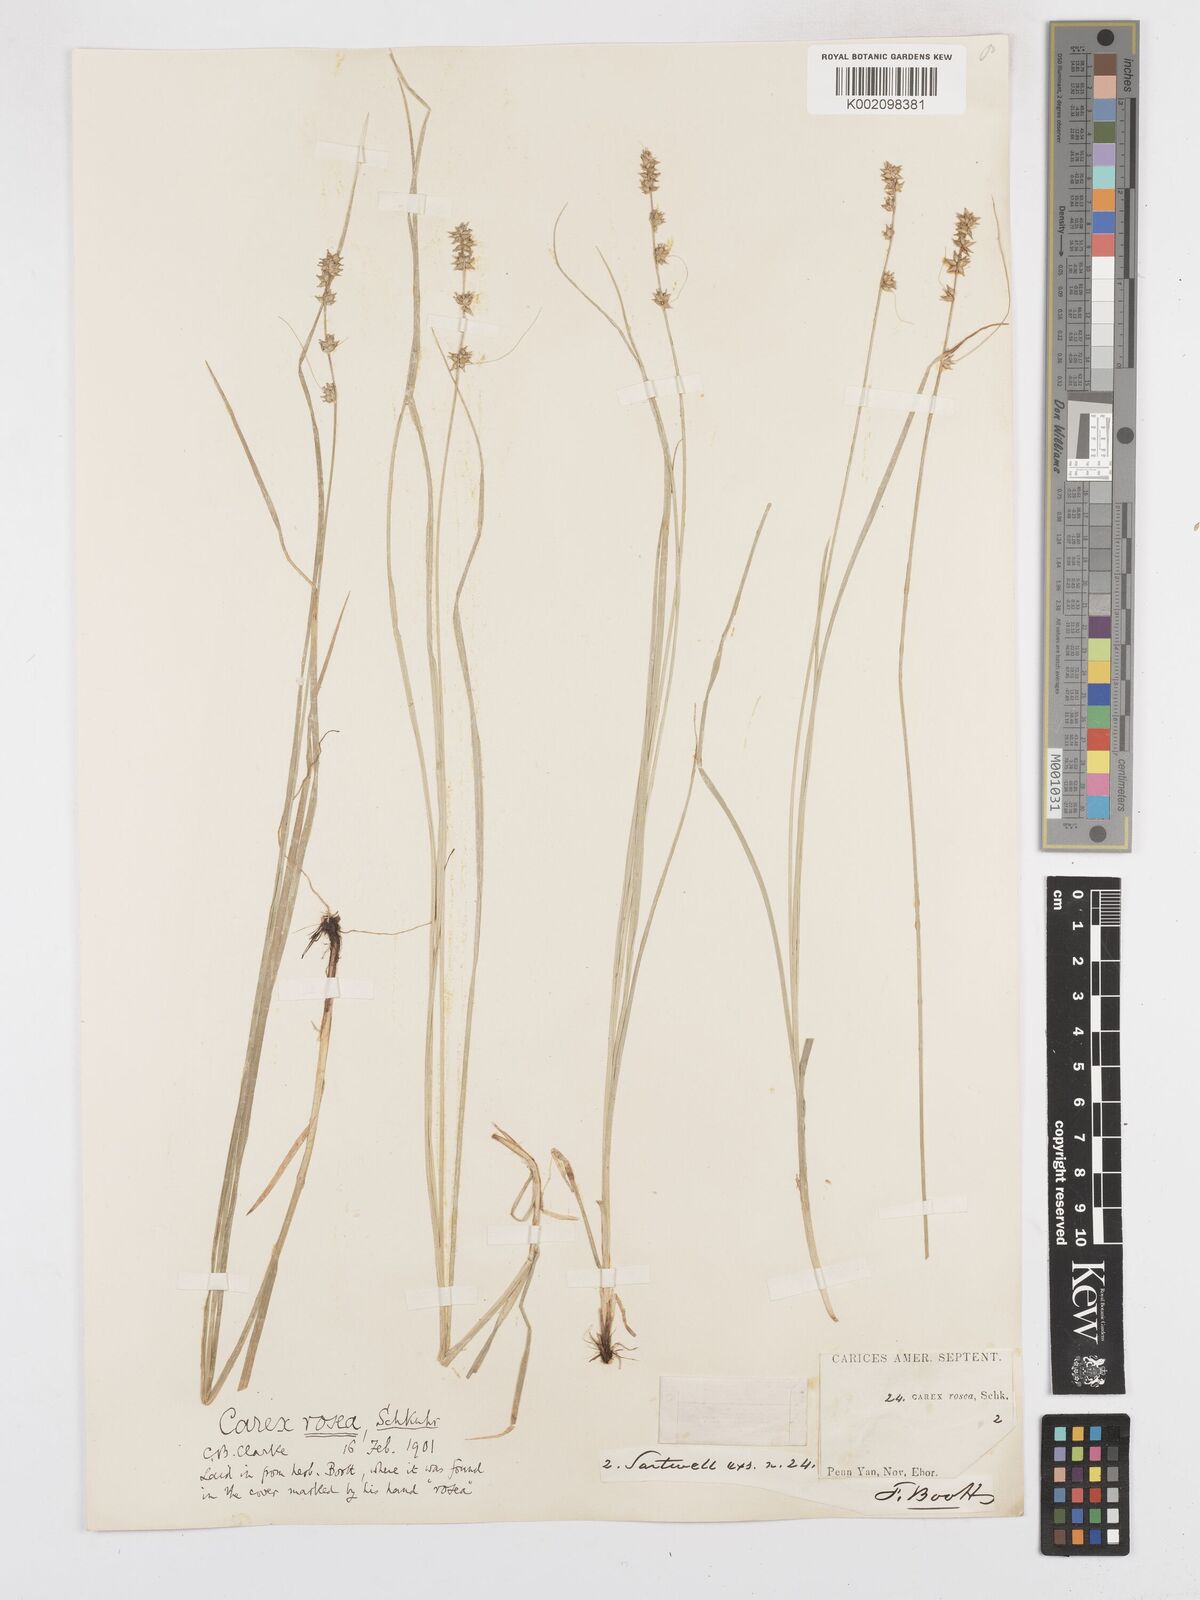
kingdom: Plantae
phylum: Tracheophyta
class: Liliopsida
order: Poales
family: Cyperaceae
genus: Carex
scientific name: Carex rosea
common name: Curly-styled wood sedge
